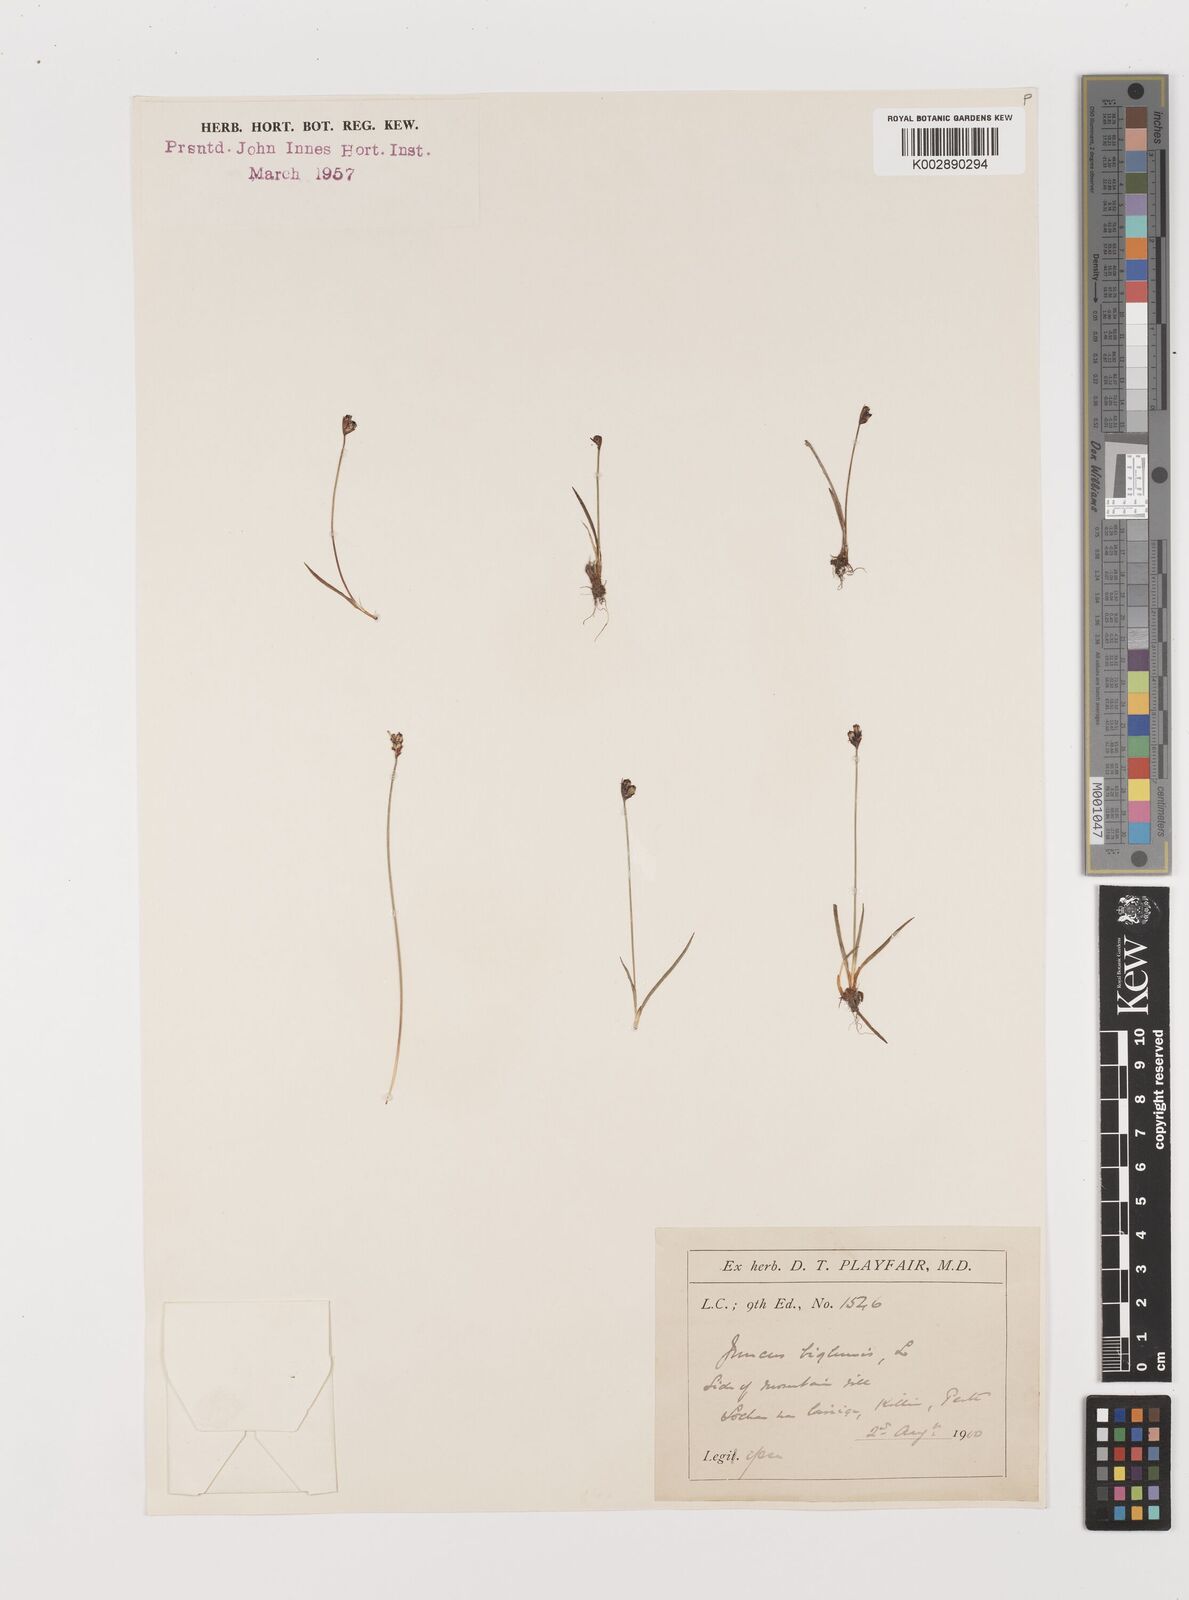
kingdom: Plantae
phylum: Tracheophyta
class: Liliopsida
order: Poales
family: Juncaceae
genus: Juncus
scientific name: Juncus biglumis
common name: Two-flowered rush
